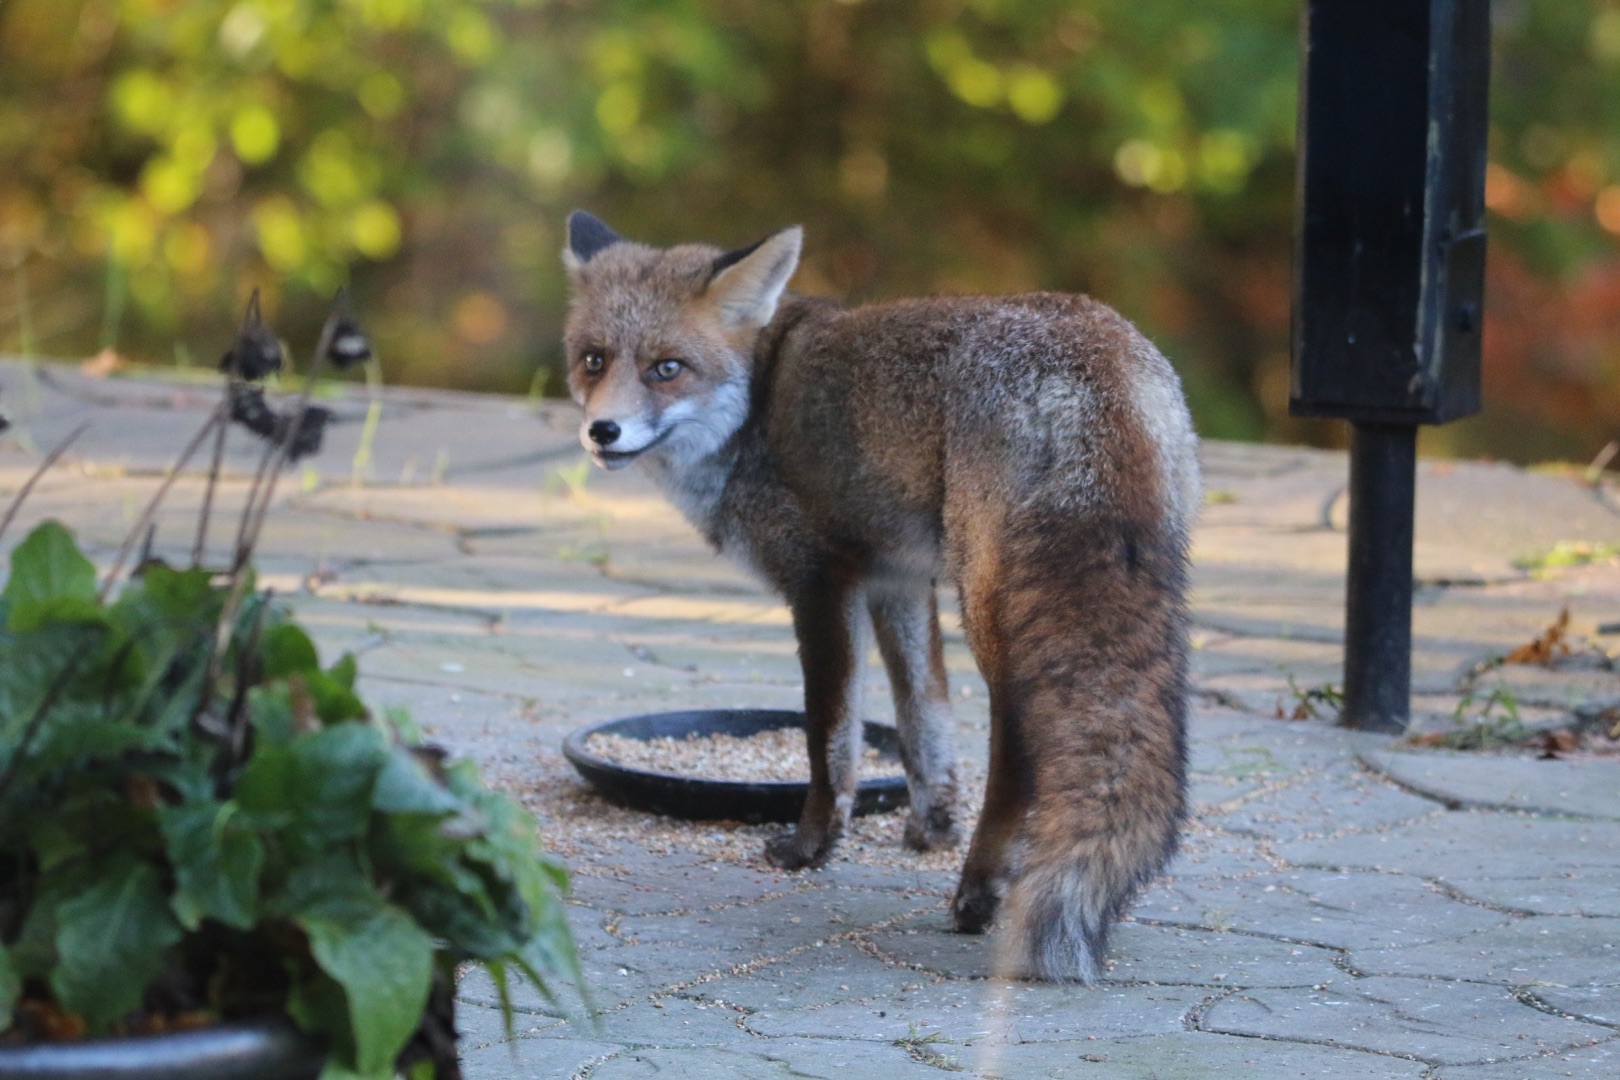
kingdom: Animalia
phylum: Chordata
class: Mammalia
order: Carnivora
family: Canidae
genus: Vulpes
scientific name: Vulpes vulpes
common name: Ræv
